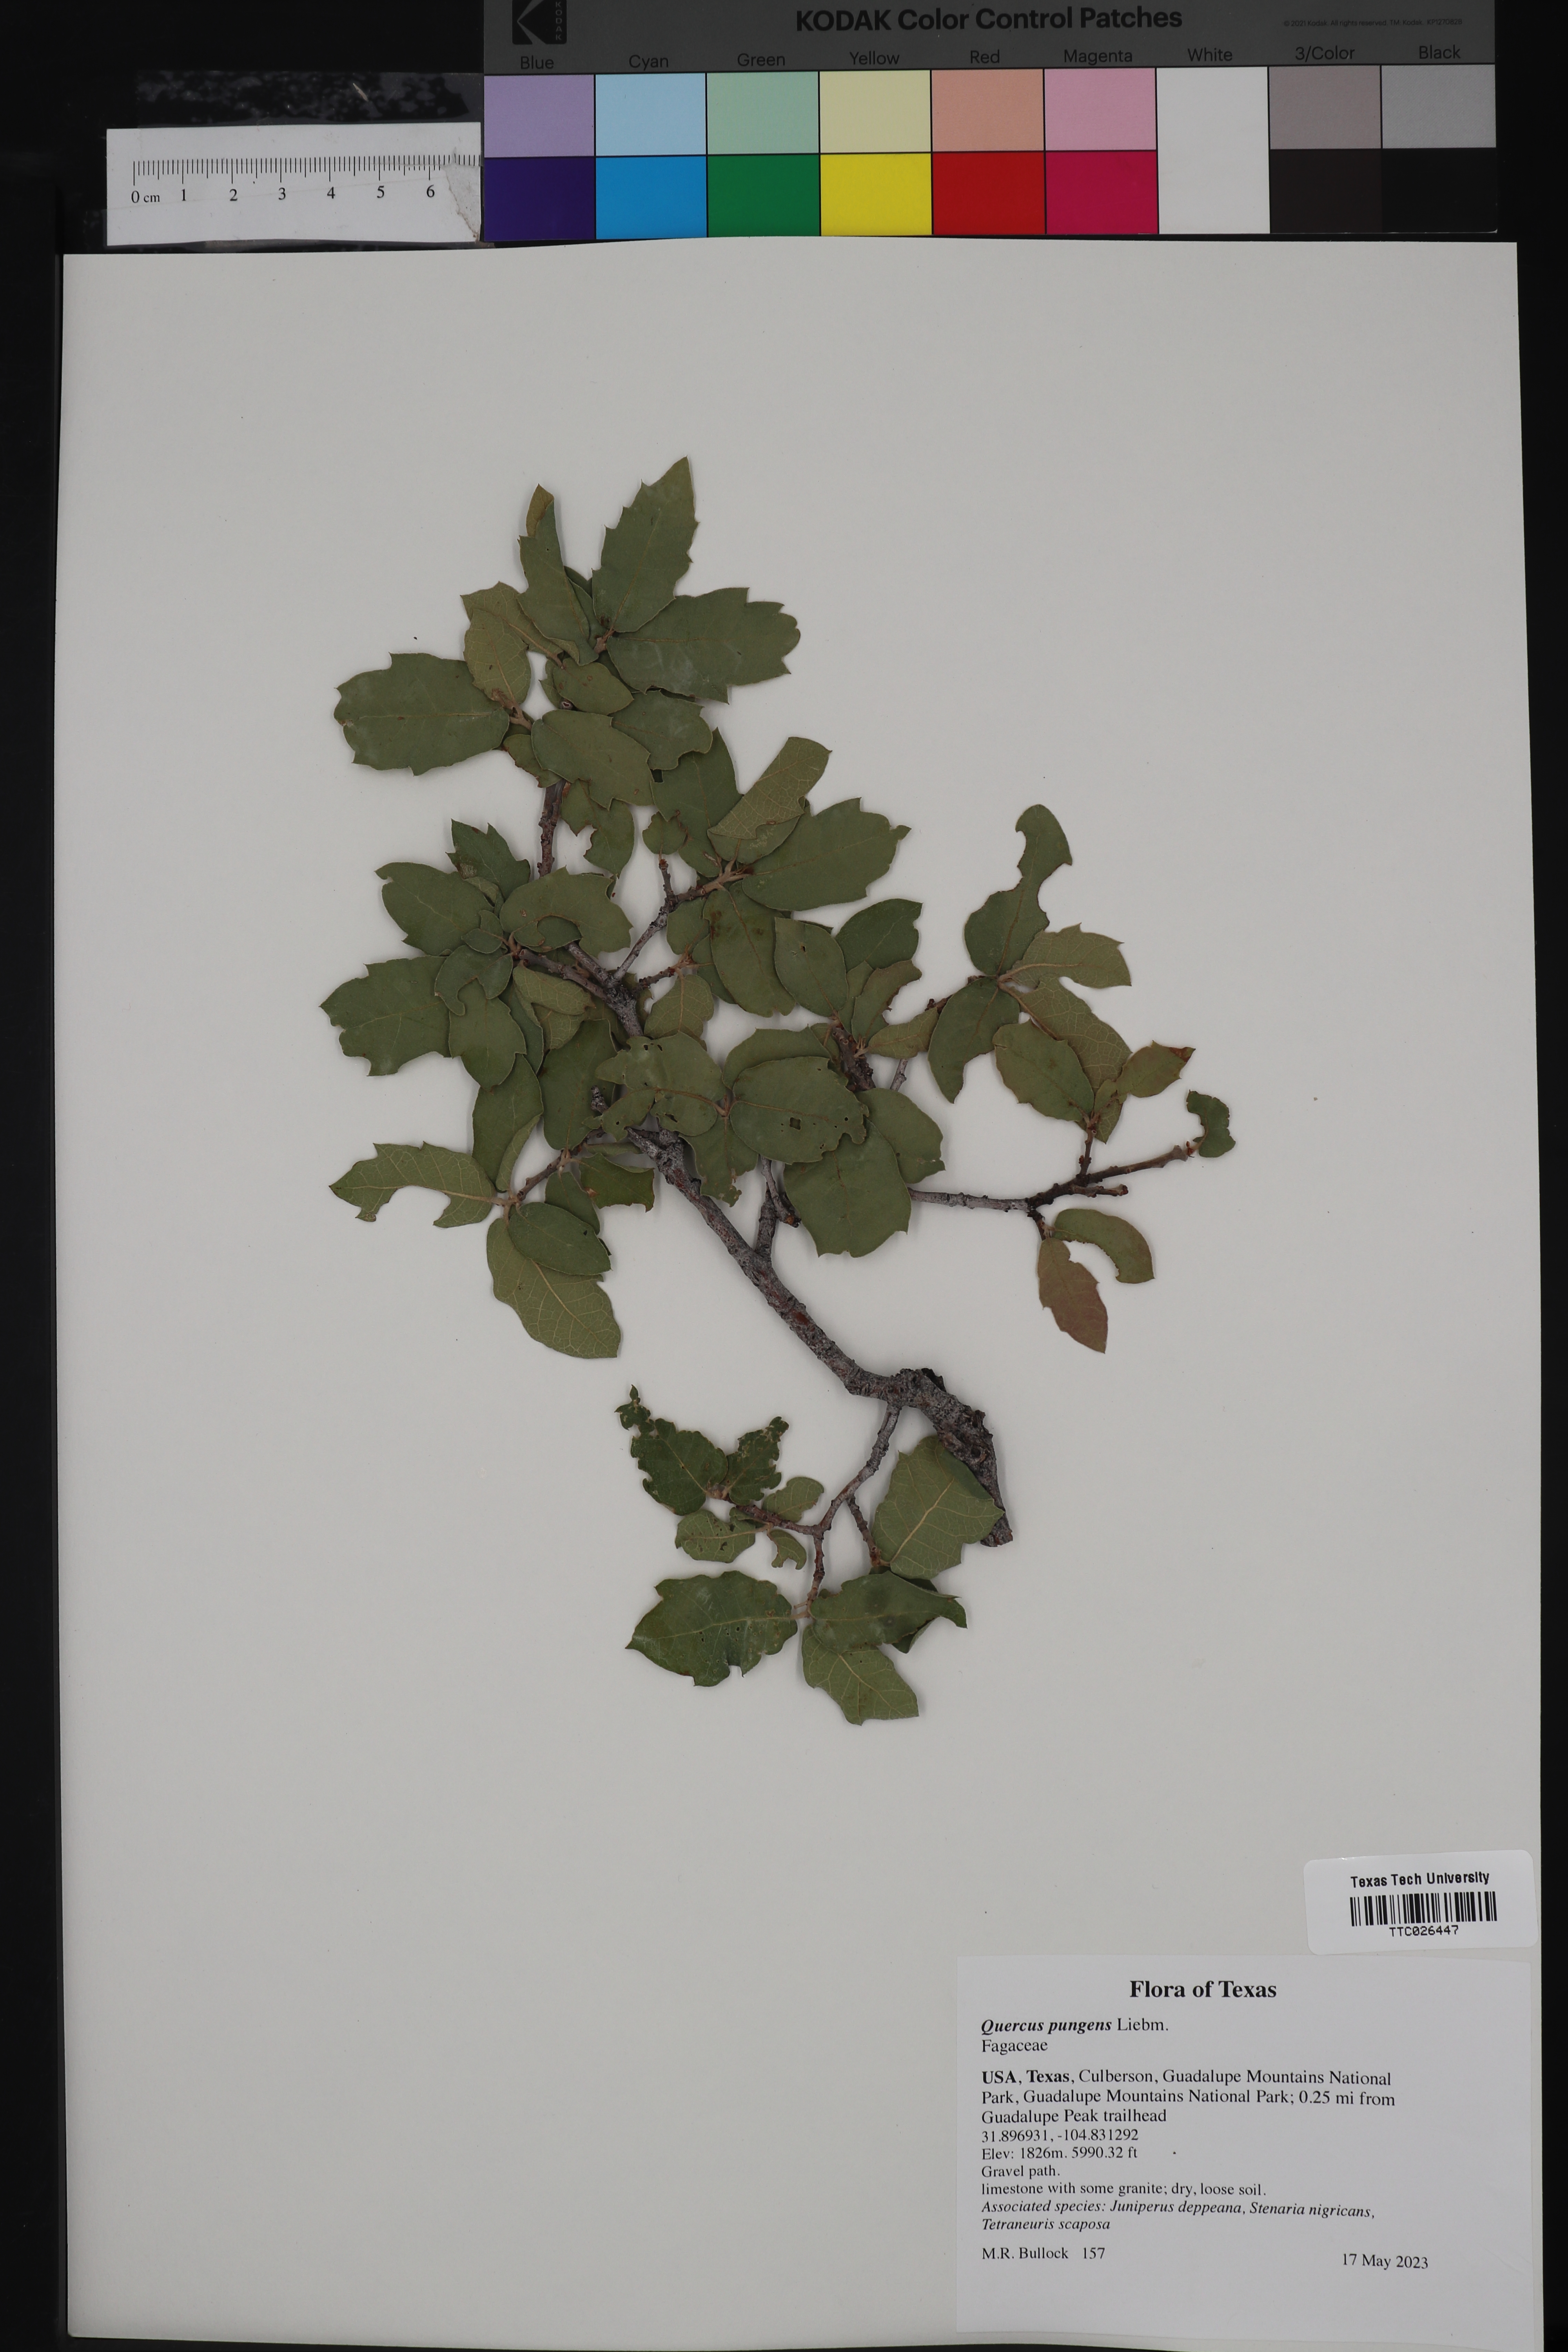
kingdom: Plantae
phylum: Tracheophyta
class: Magnoliopsida
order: Fagales
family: Fagaceae
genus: Quercus
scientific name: Quercus pungens
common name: Pungent oak
